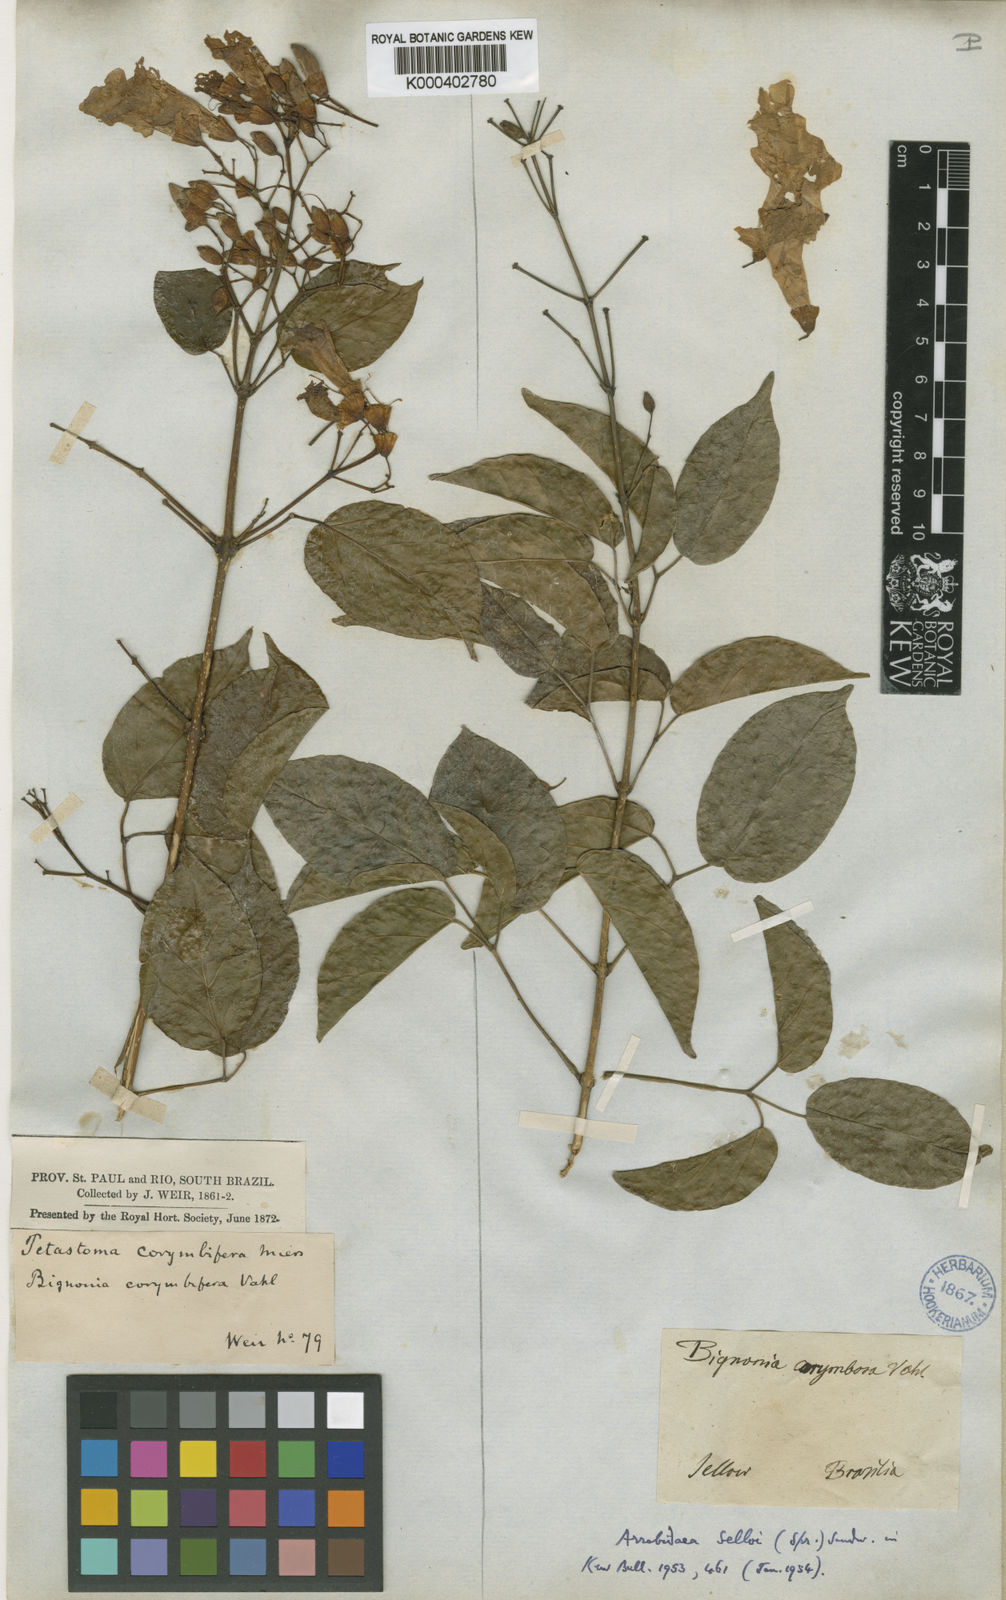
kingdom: Plantae
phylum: Tracheophyta
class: Magnoliopsida
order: Lamiales
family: Bignoniaceae
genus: Tanaecium
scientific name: Tanaecium selloi
